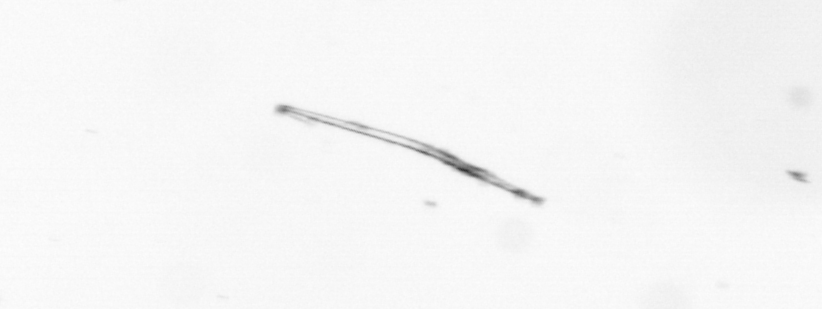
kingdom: Chromista
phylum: Ochrophyta
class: Bacillariophyceae
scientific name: Bacillariophyceae
